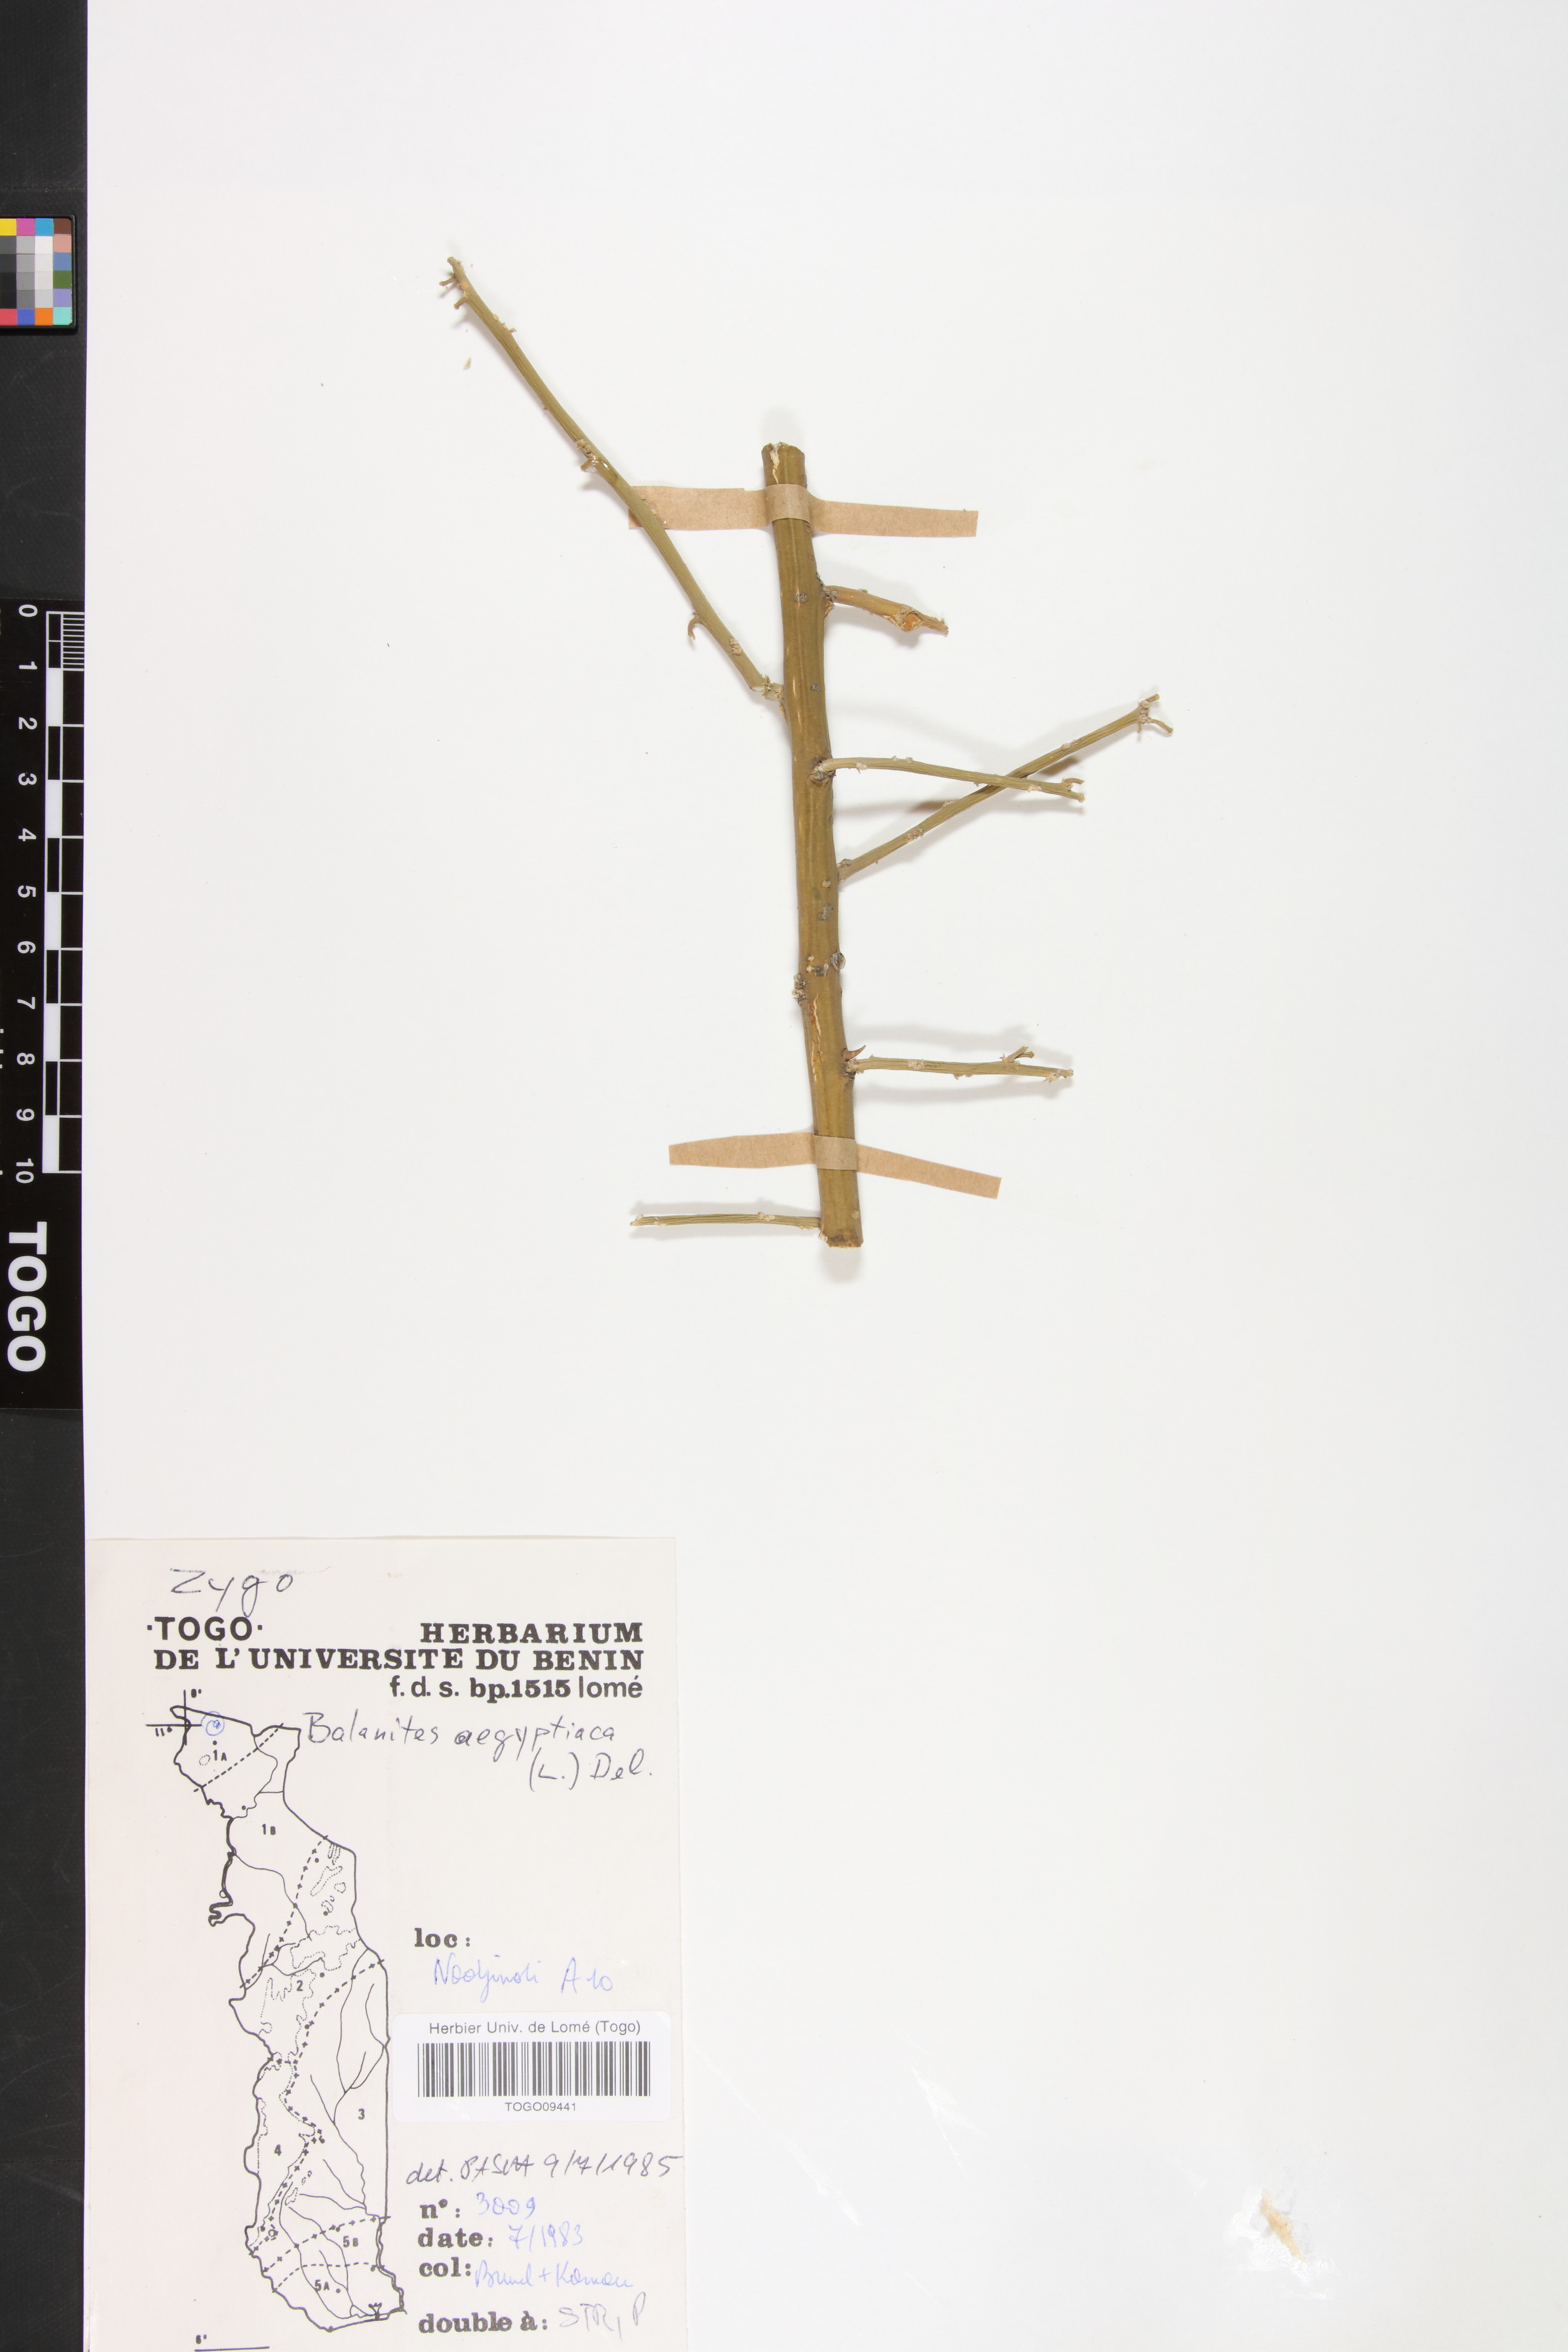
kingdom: Plantae
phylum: Tracheophyta
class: Magnoliopsida
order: Zygophyllales
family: Zygophyllaceae
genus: Balanites
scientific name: Balanites aegyptiaca
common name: Balanites
